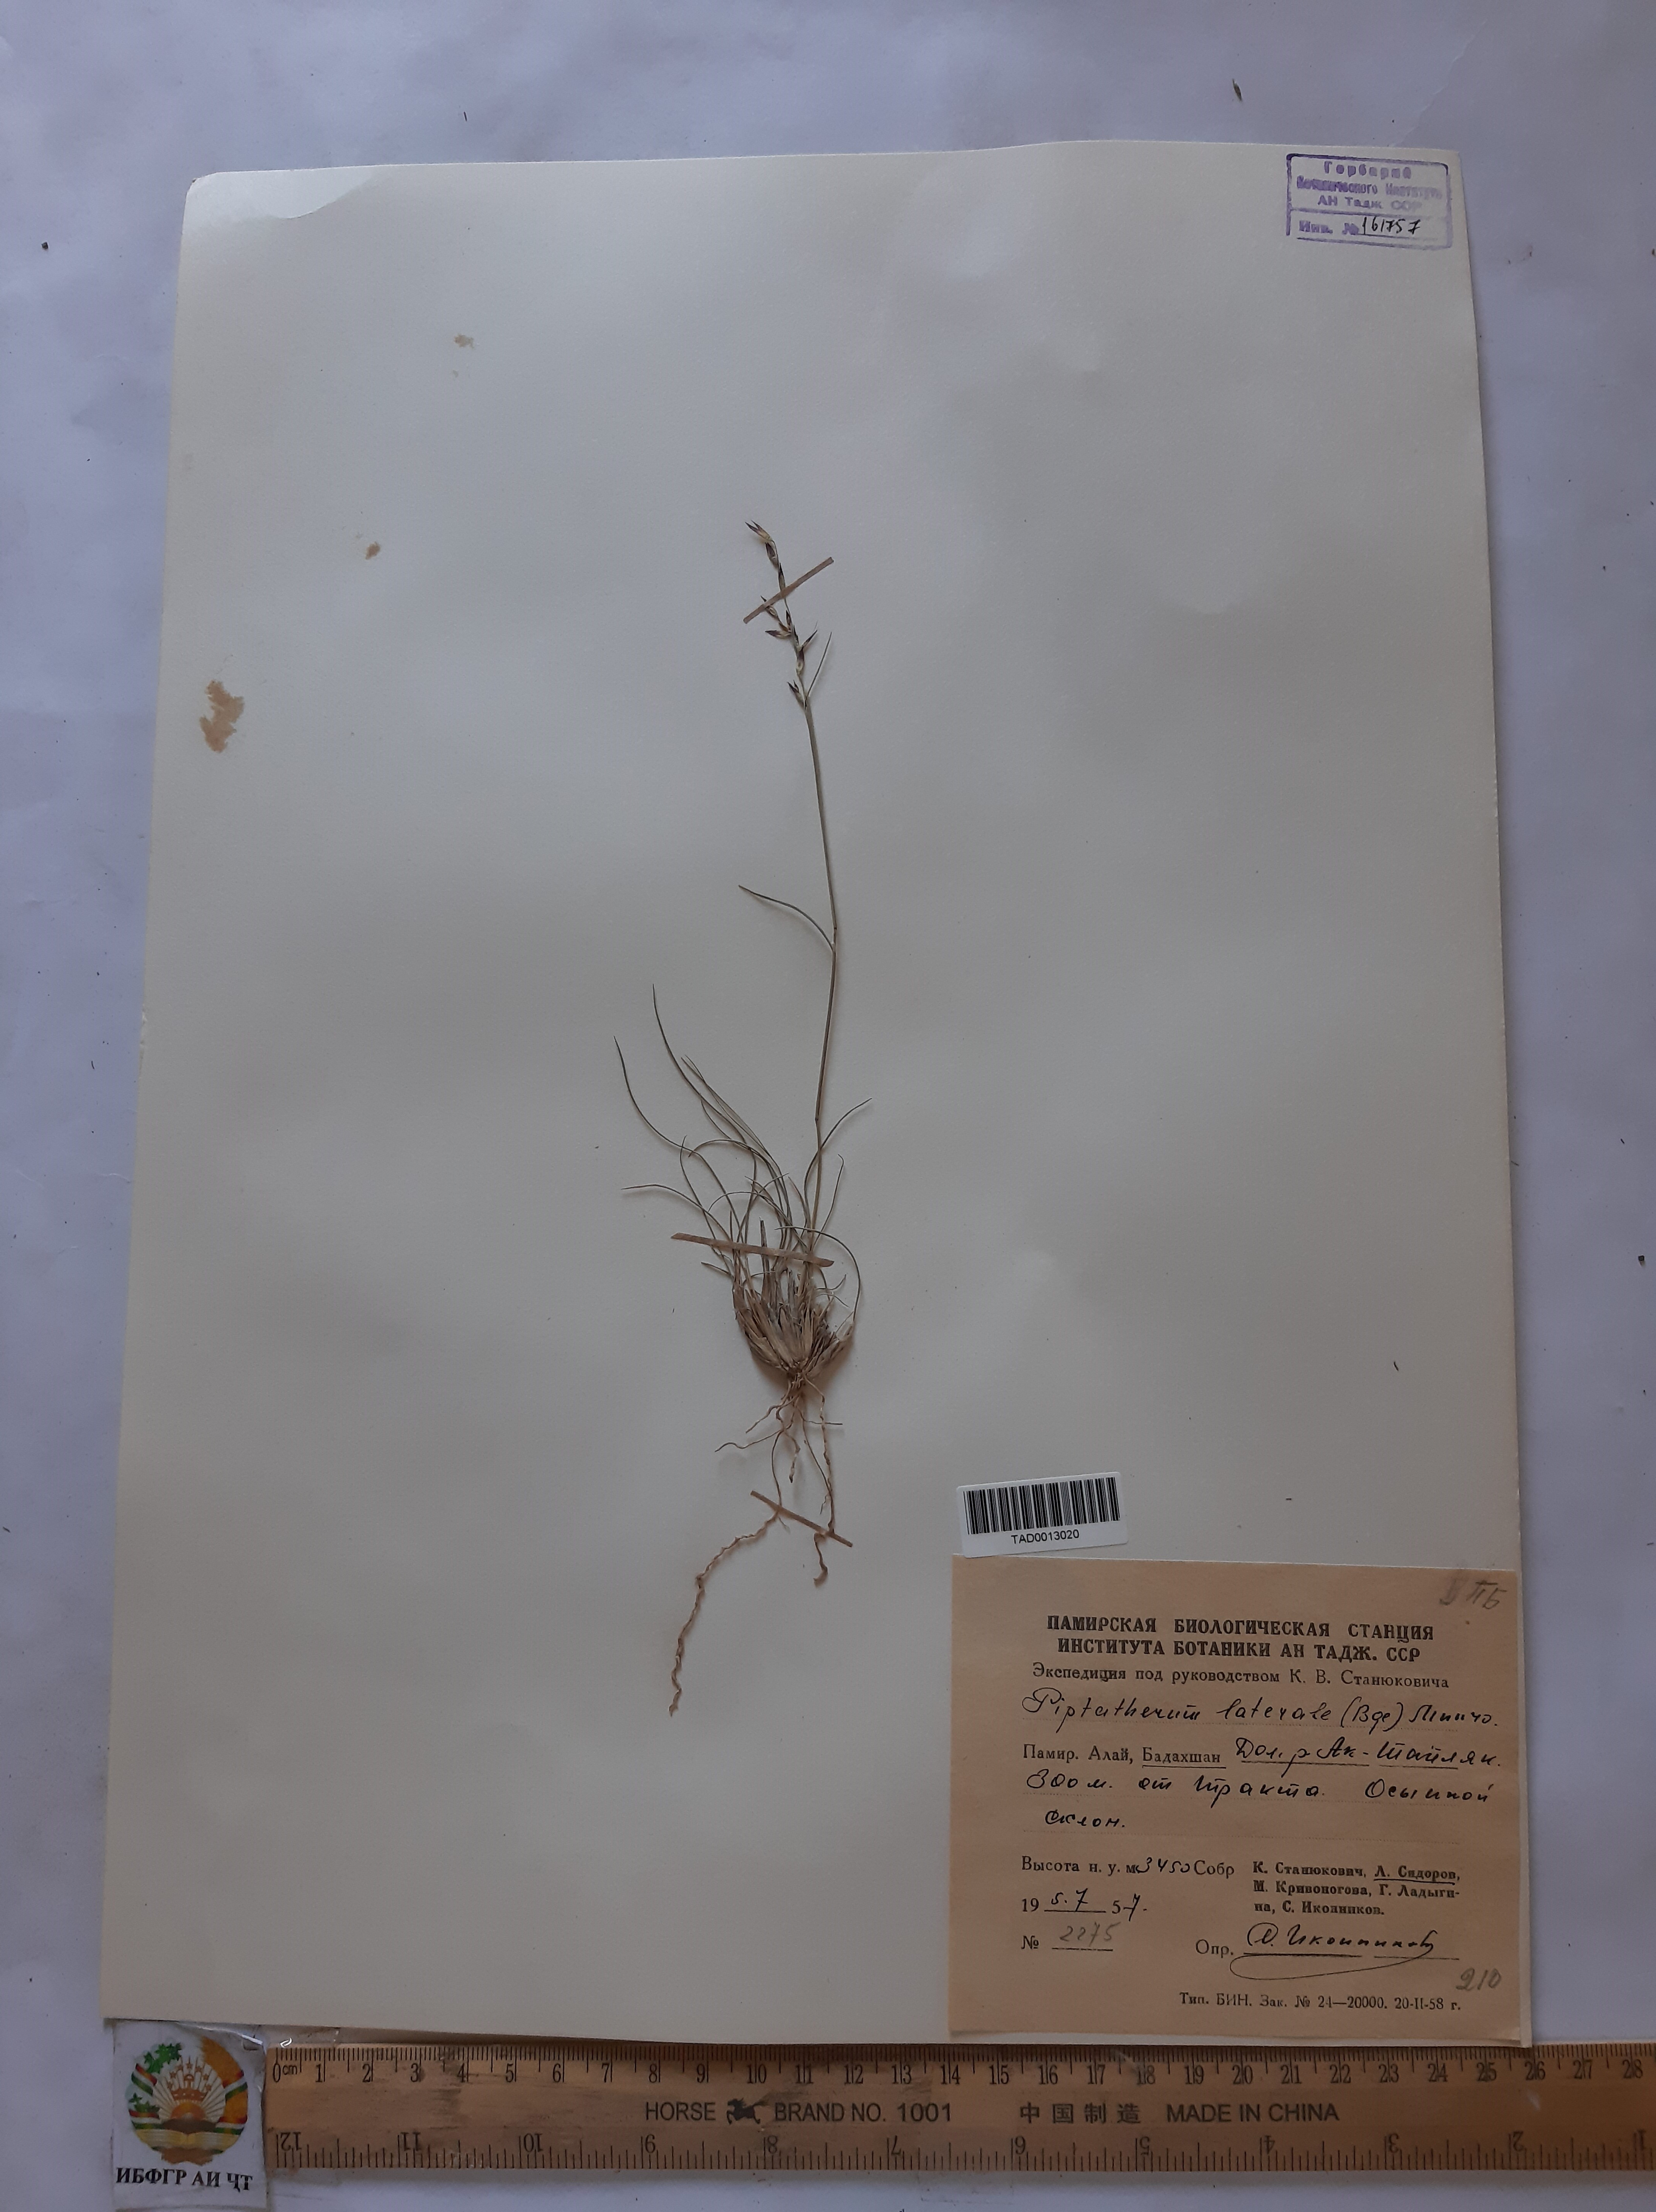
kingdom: Plantae
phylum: Tracheophyta
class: Liliopsida
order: Poales
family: Poaceae
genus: Piptatherum
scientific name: Piptatherum laterale
